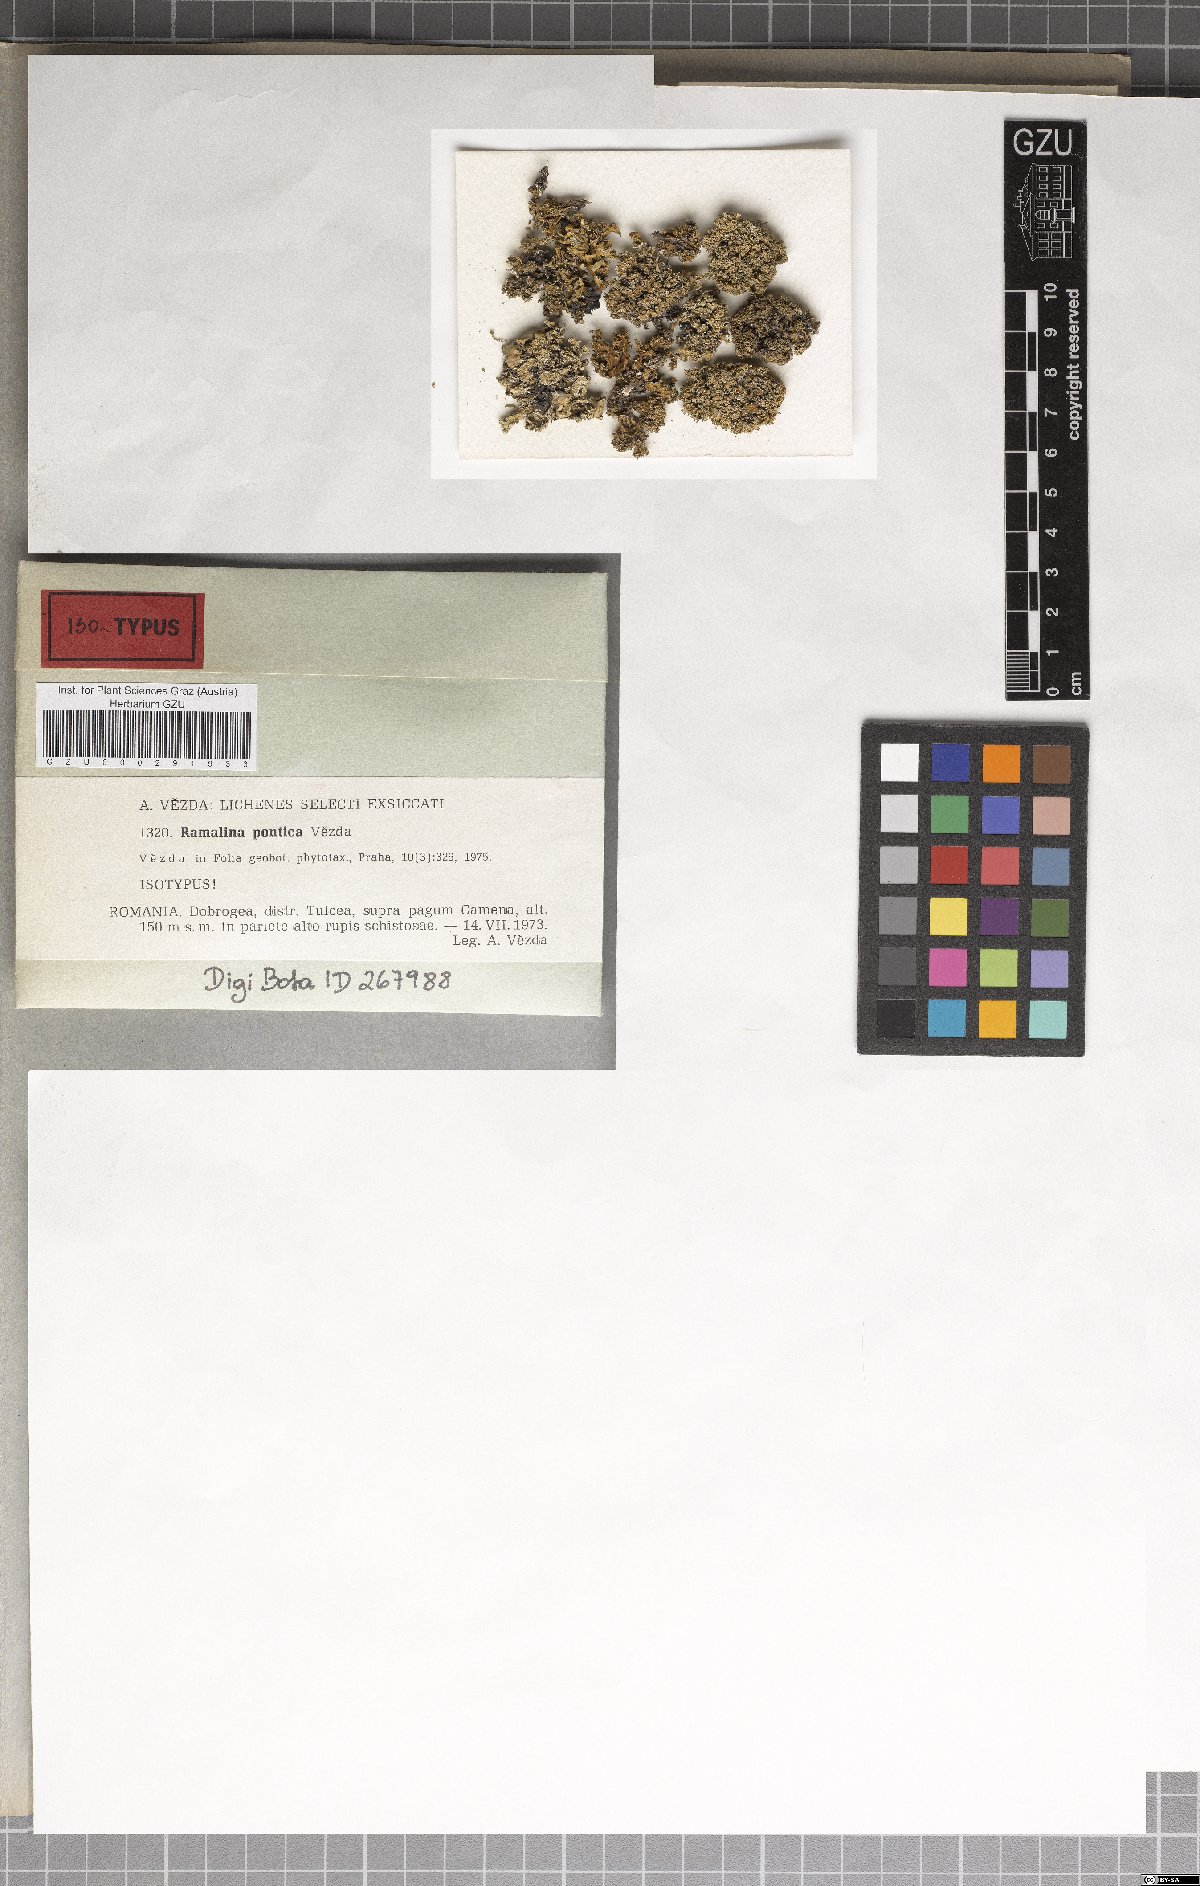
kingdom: Fungi
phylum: Ascomycota
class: Lecanoromycetes
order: Lecanorales
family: Ramalinaceae
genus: Ramalina
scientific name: Ramalina pontica
